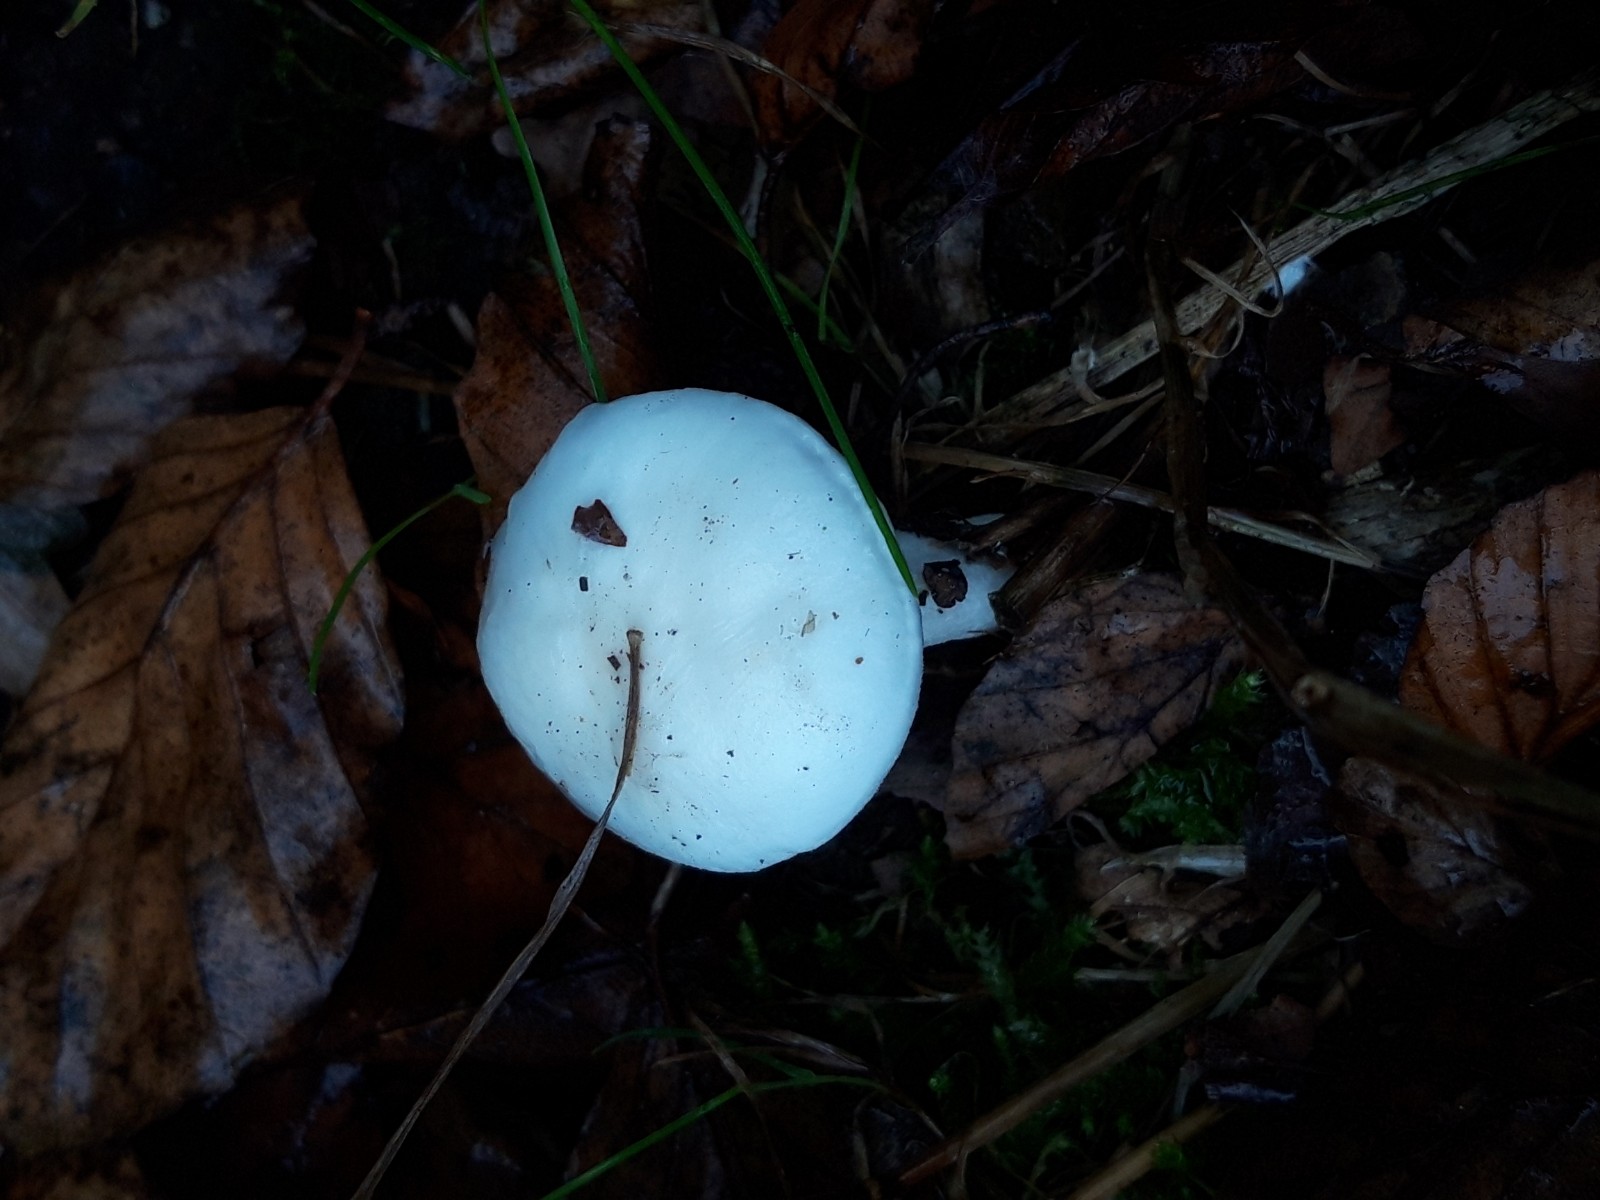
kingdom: Fungi
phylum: Basidiomycota
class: Agaricomycetes
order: Agaricales
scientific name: Agaricales
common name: champignonordenen
